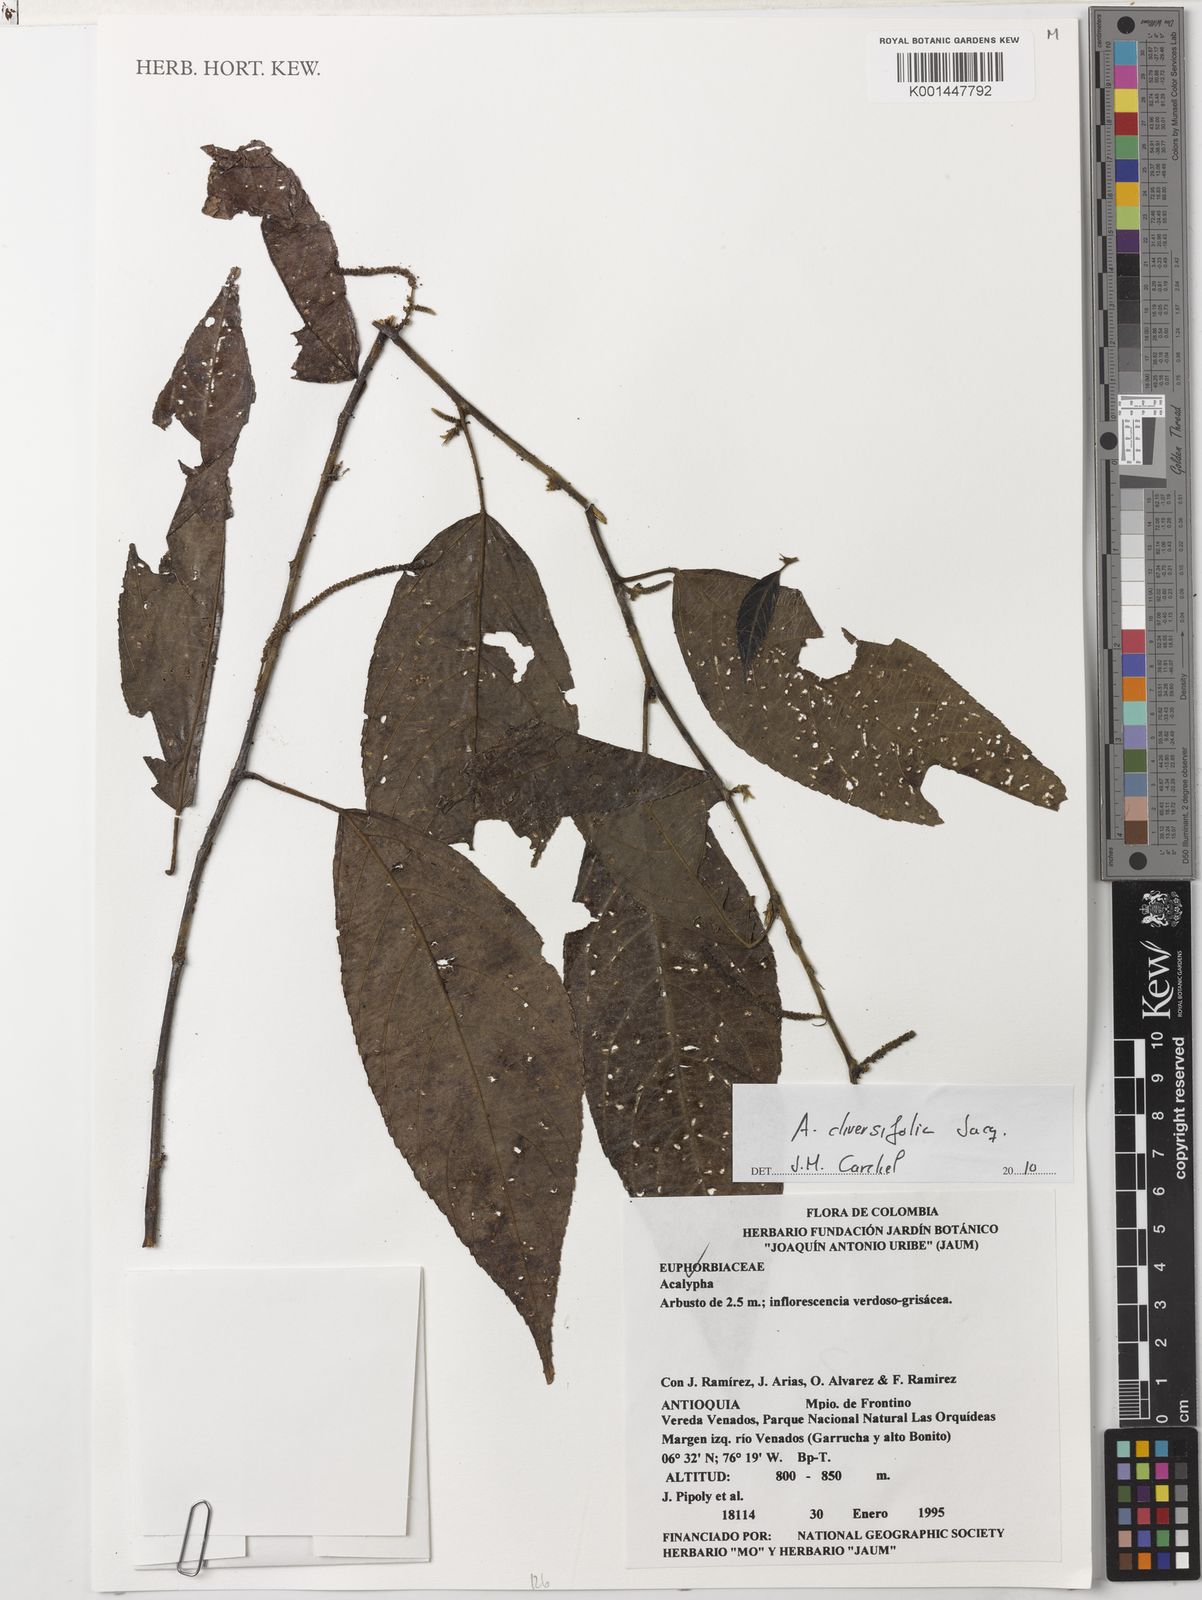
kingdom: Plantae
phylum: Tracheophyta
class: Magnoliopsida
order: Malpighiales
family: Euphorbiaceae
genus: Acalypha
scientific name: Acalypha diversifolia
